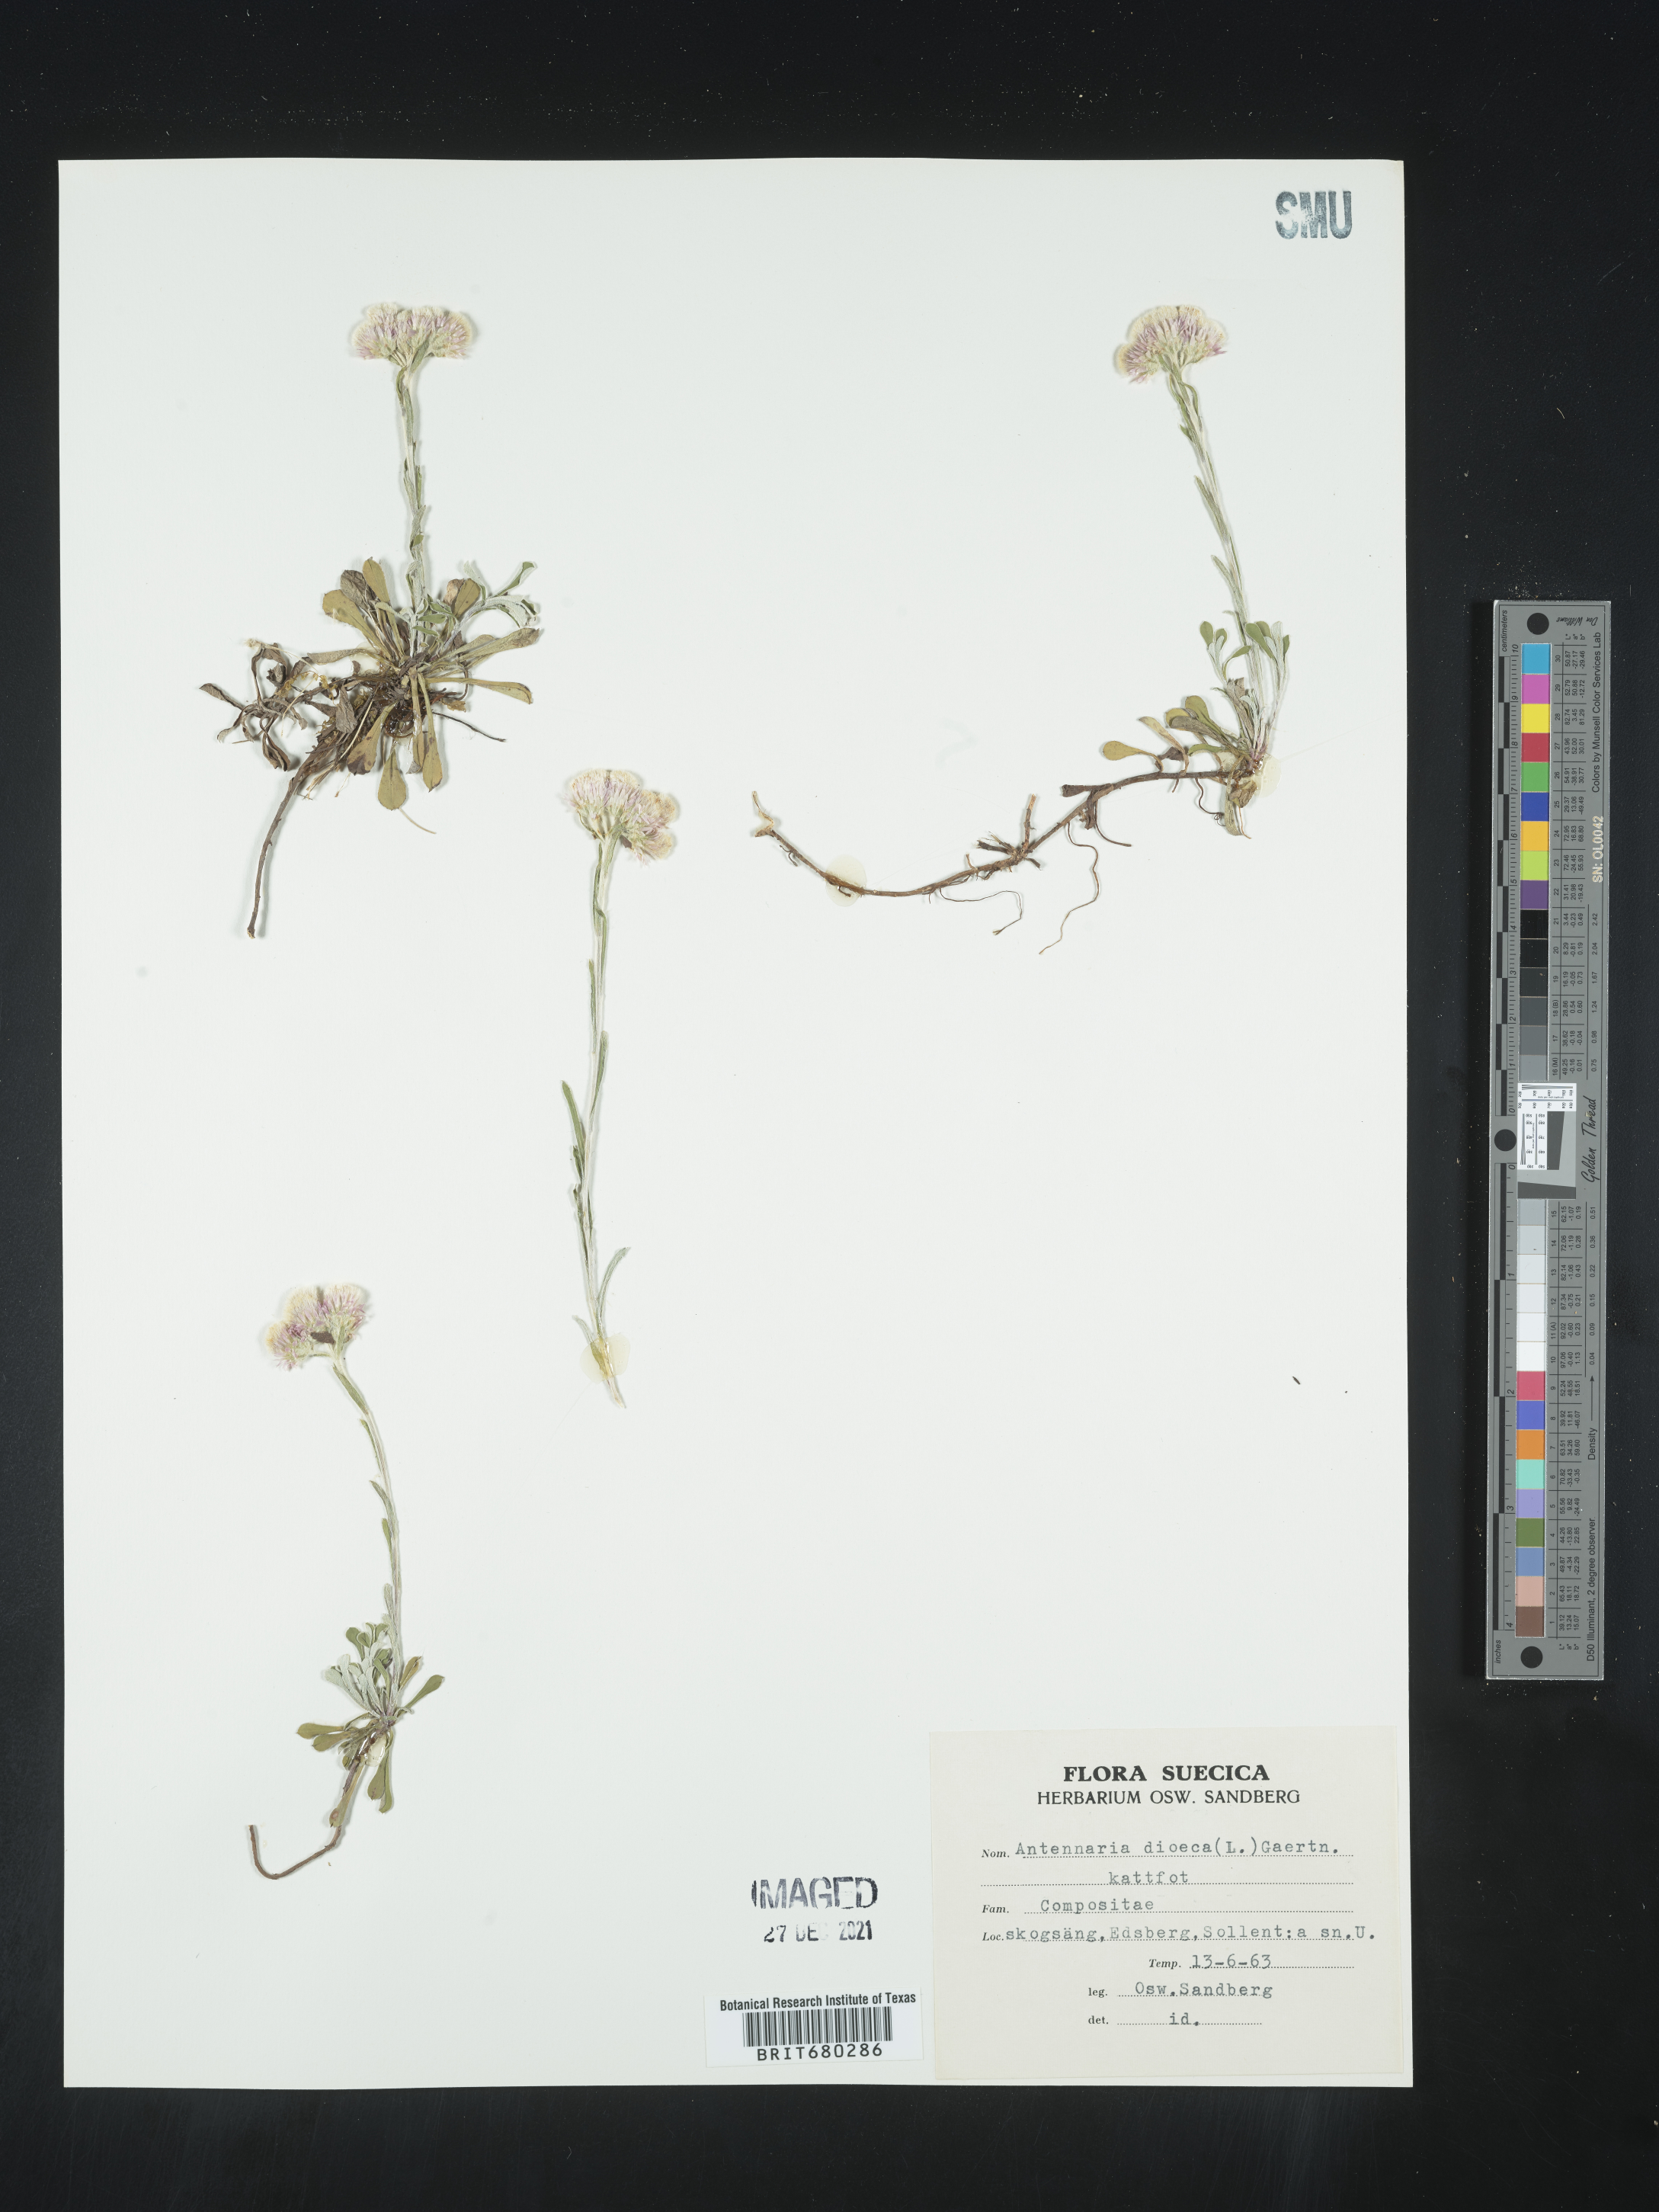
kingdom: Plantae
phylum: Tracheophyta
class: Magnoliopsida
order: Asterales
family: Asteraceae
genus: Antennaria
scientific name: Antennaria dioica
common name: Mountain everlasting
